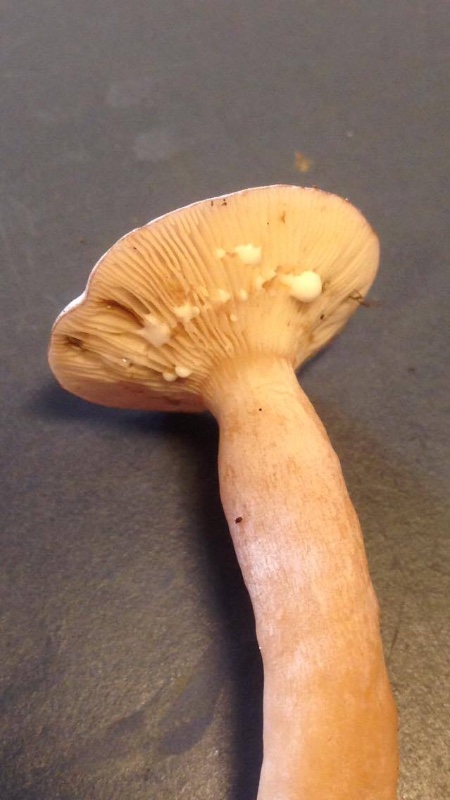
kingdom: Fungi
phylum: Basidiomycota
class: Agaricomycetes
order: Russulales
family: Russulaceae
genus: Lactarius
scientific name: Lactarius rufus
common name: rødbrun mælkehat
